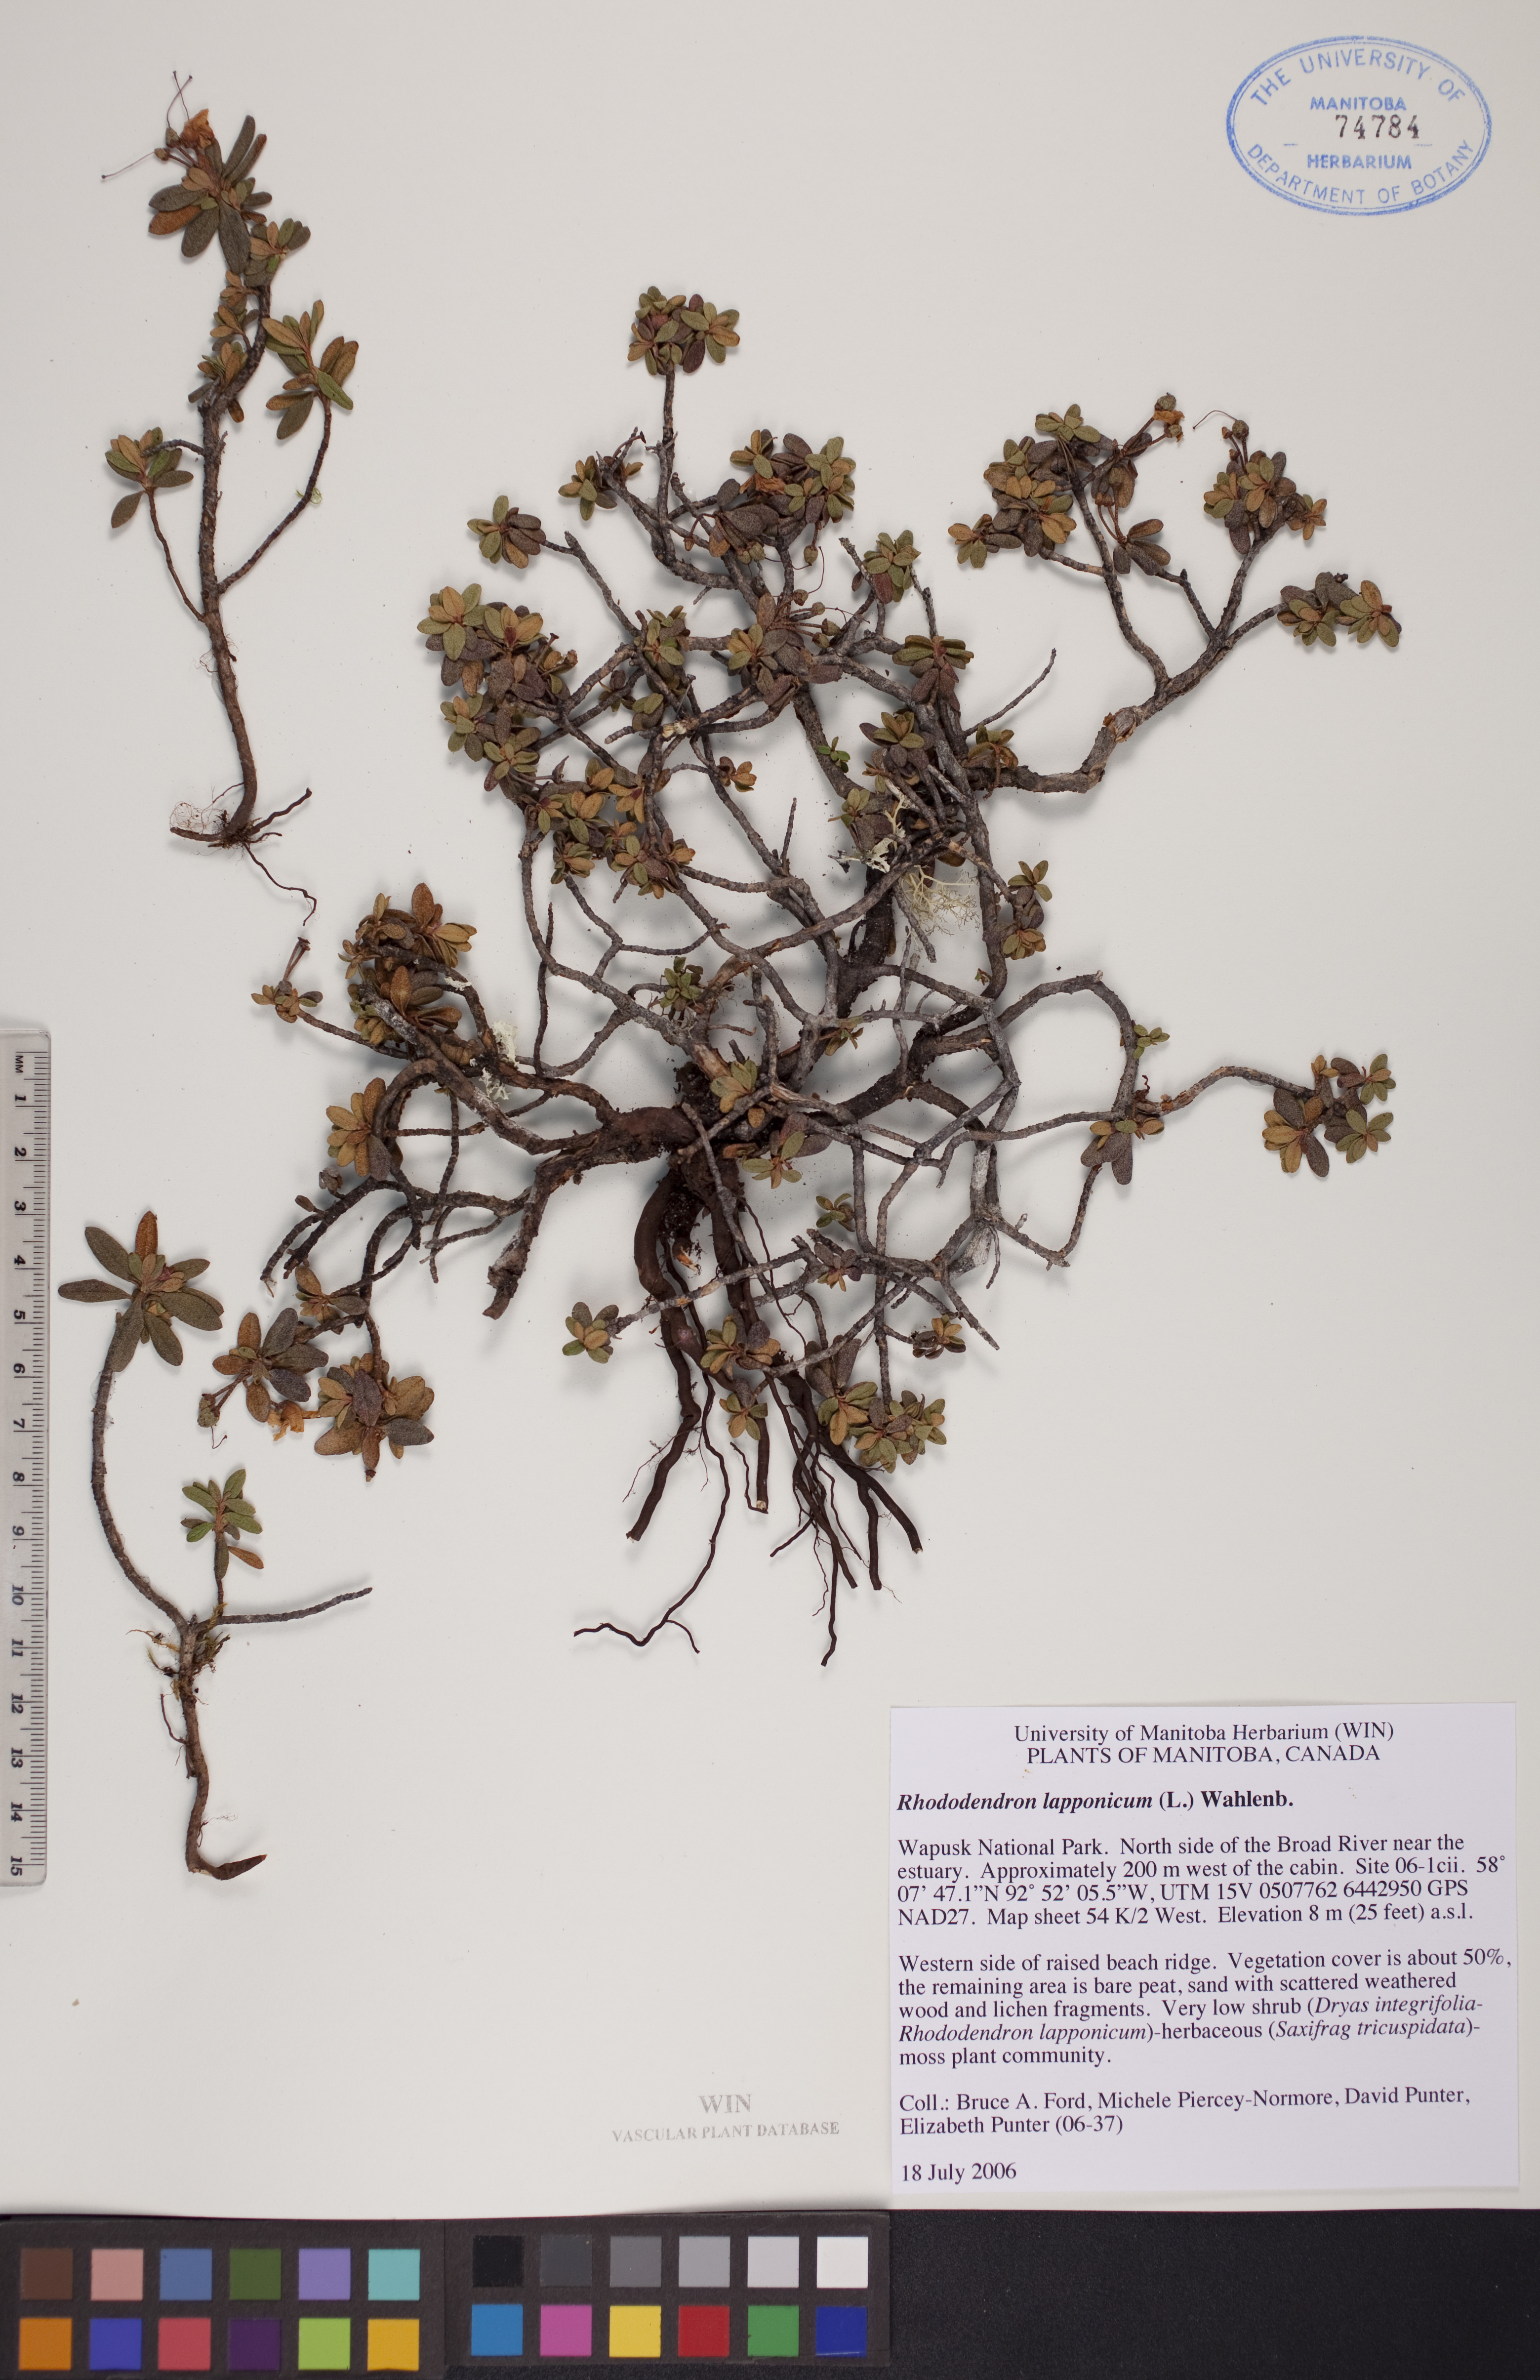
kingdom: Plantae
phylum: Tracheophyta
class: Magnoliopsida
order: Ericales
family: Ericaceae
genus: Rhododendron
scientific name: Rhododendron lapponicum
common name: Lapland rhododendron
